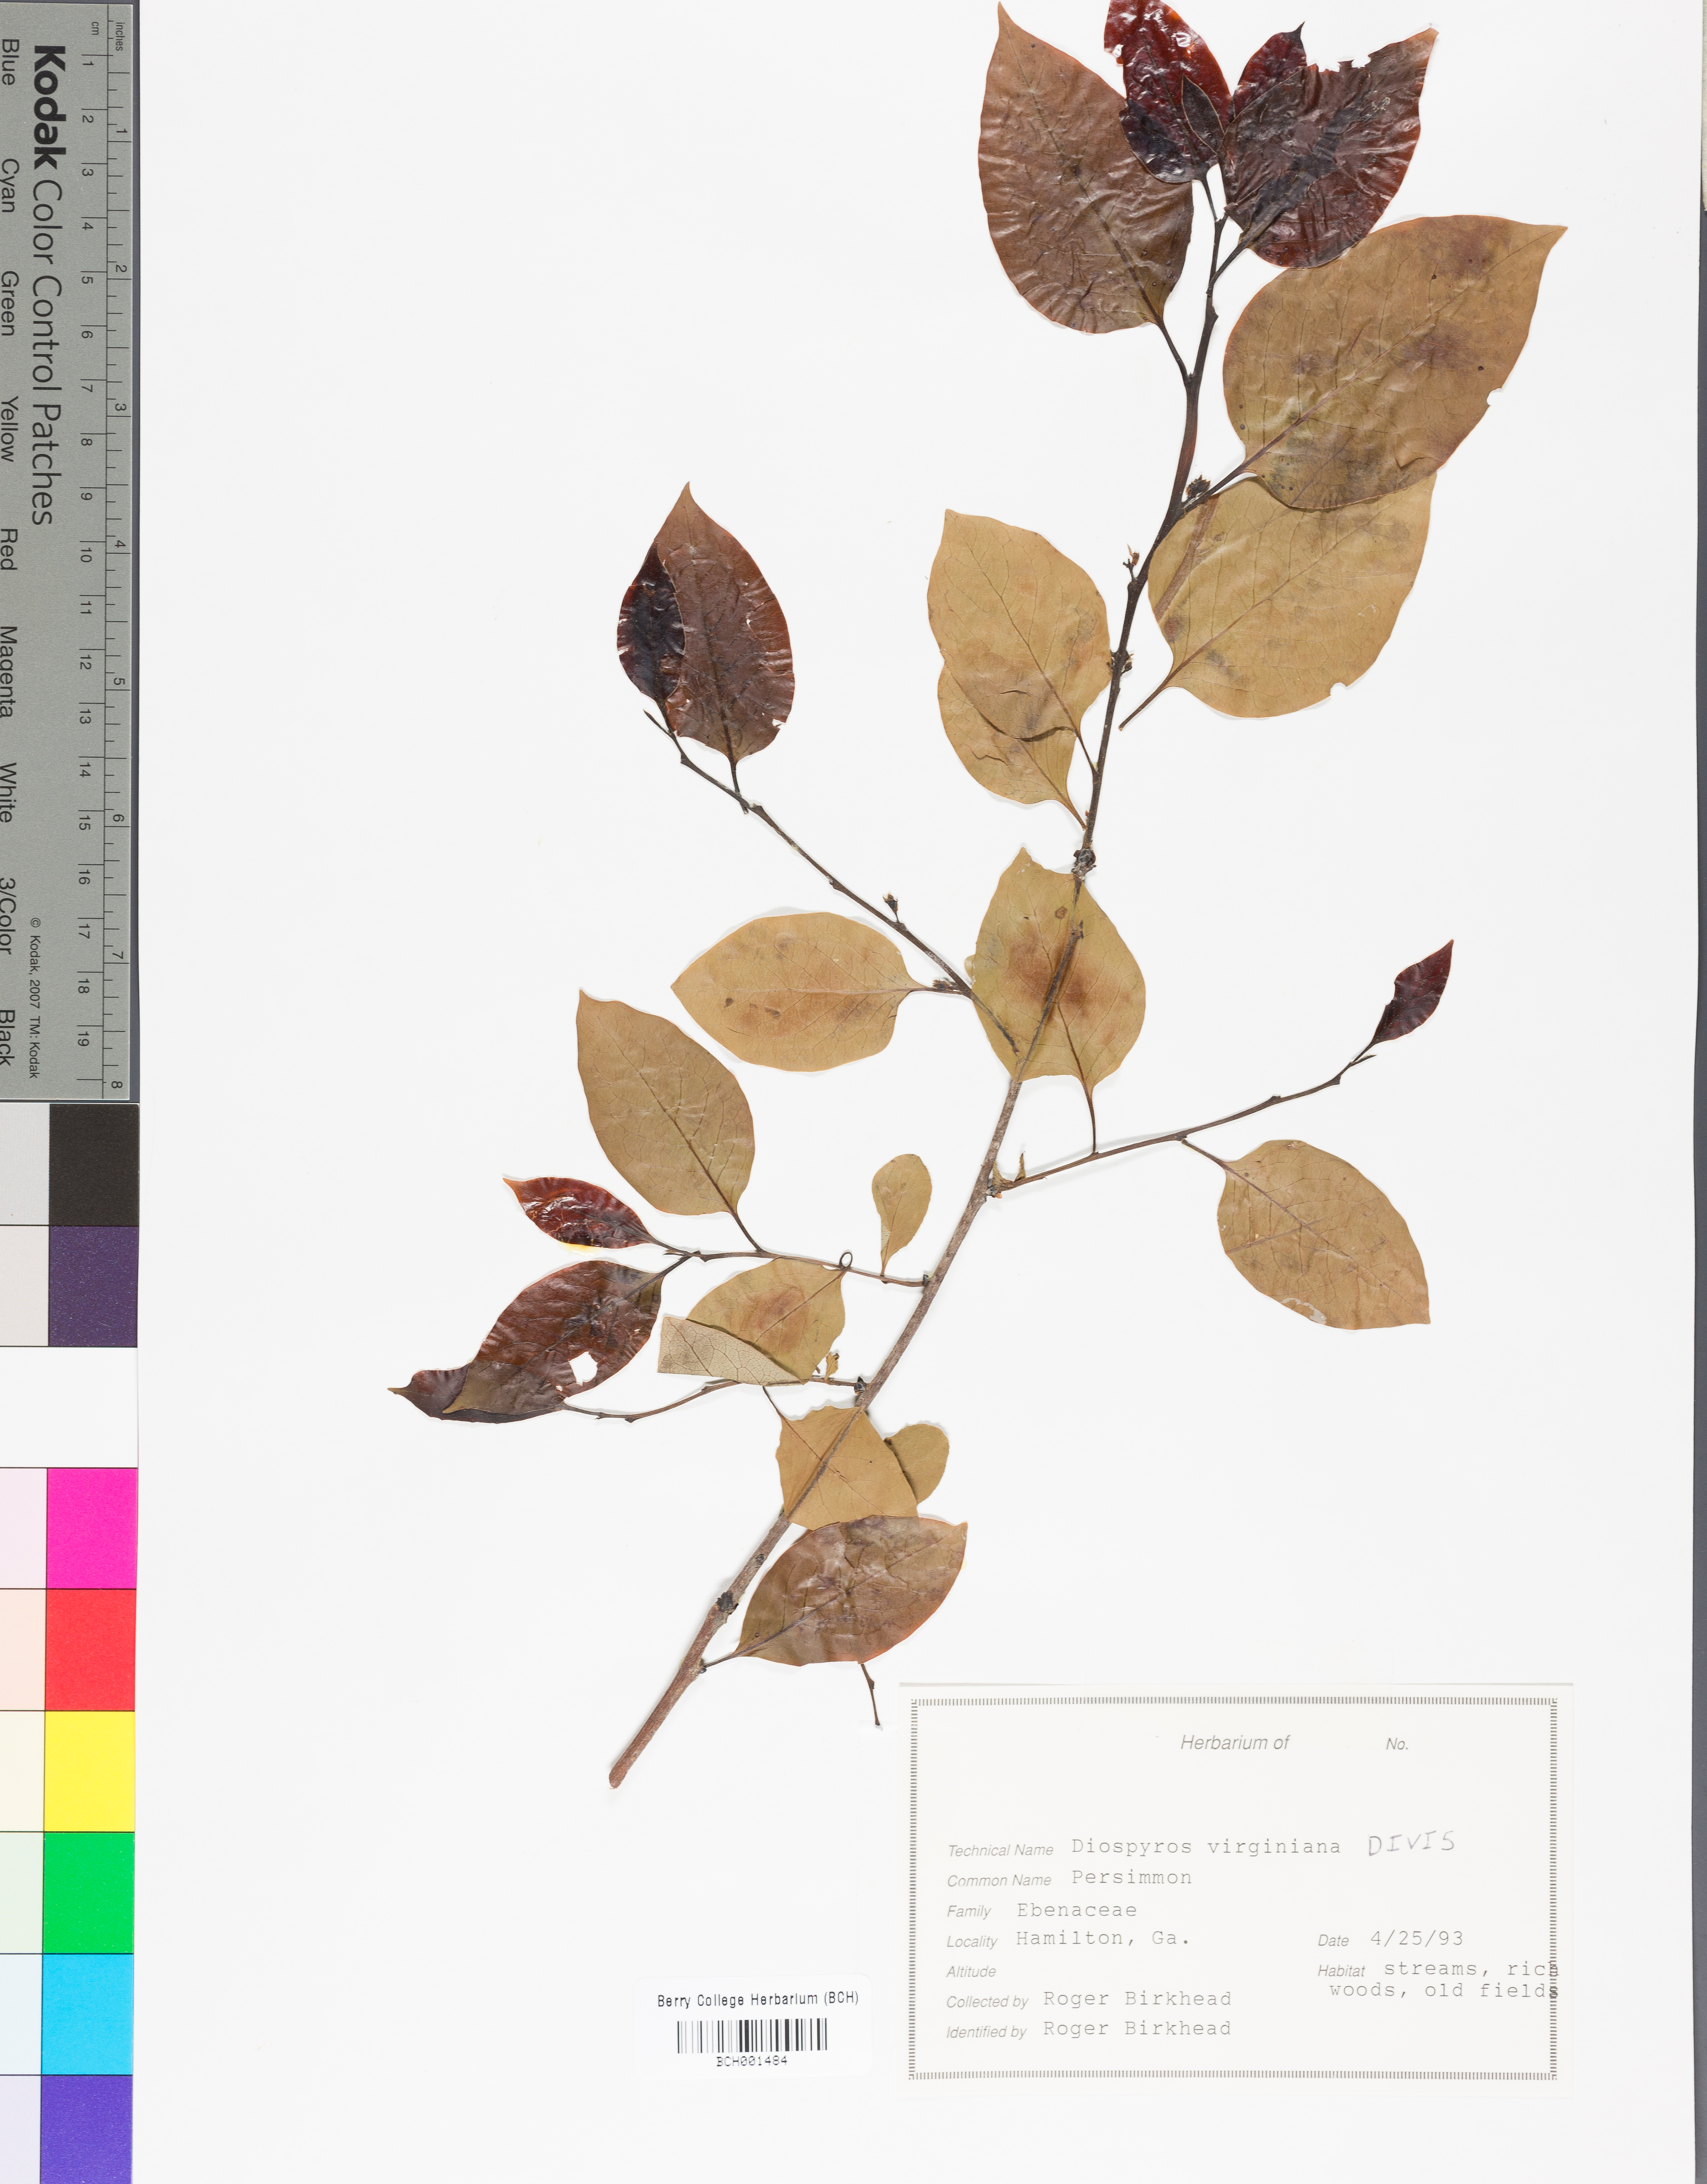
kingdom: Plantae
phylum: Tracheophyta
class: Magnoliopsida
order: Ericales
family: Ebenaceae
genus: Diospyros
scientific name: Diospyros virginiana
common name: Persimmon
